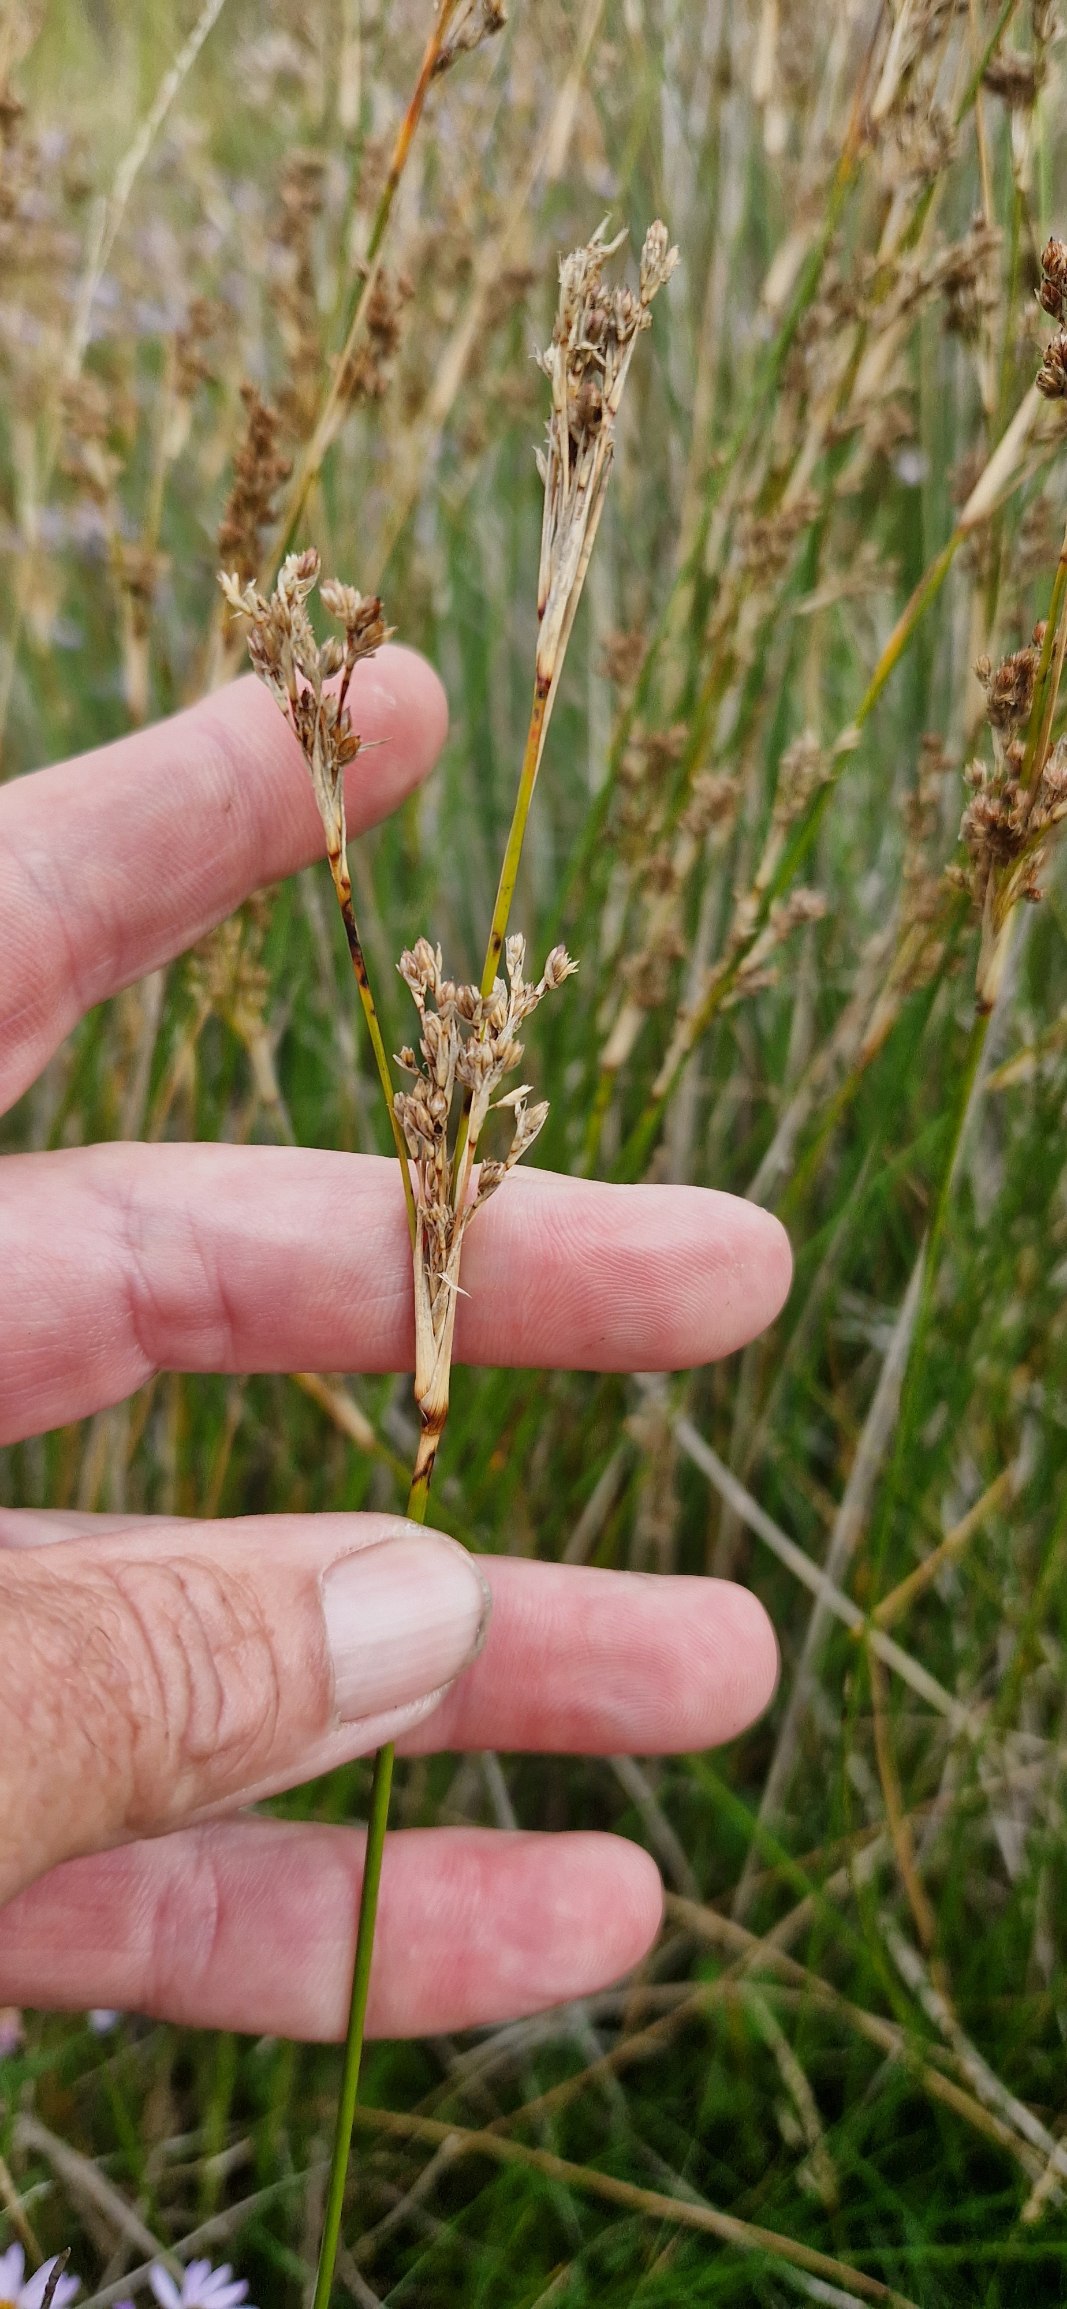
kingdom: Plantae
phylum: Tracheophyta
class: Liliopsida
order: Poales
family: Juncaceae
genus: Juncus
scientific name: Juncus maritimus
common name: Strand-siv
